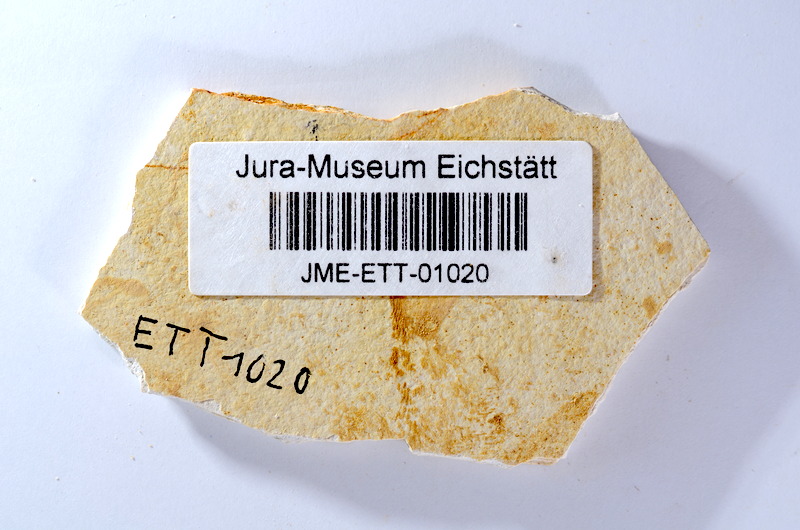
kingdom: Animalia
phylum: Chordata
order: Salmoniformes
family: Orthogonikleithridae
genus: Orthogonikleithrus
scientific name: Orthogonikleithrus hoelli
